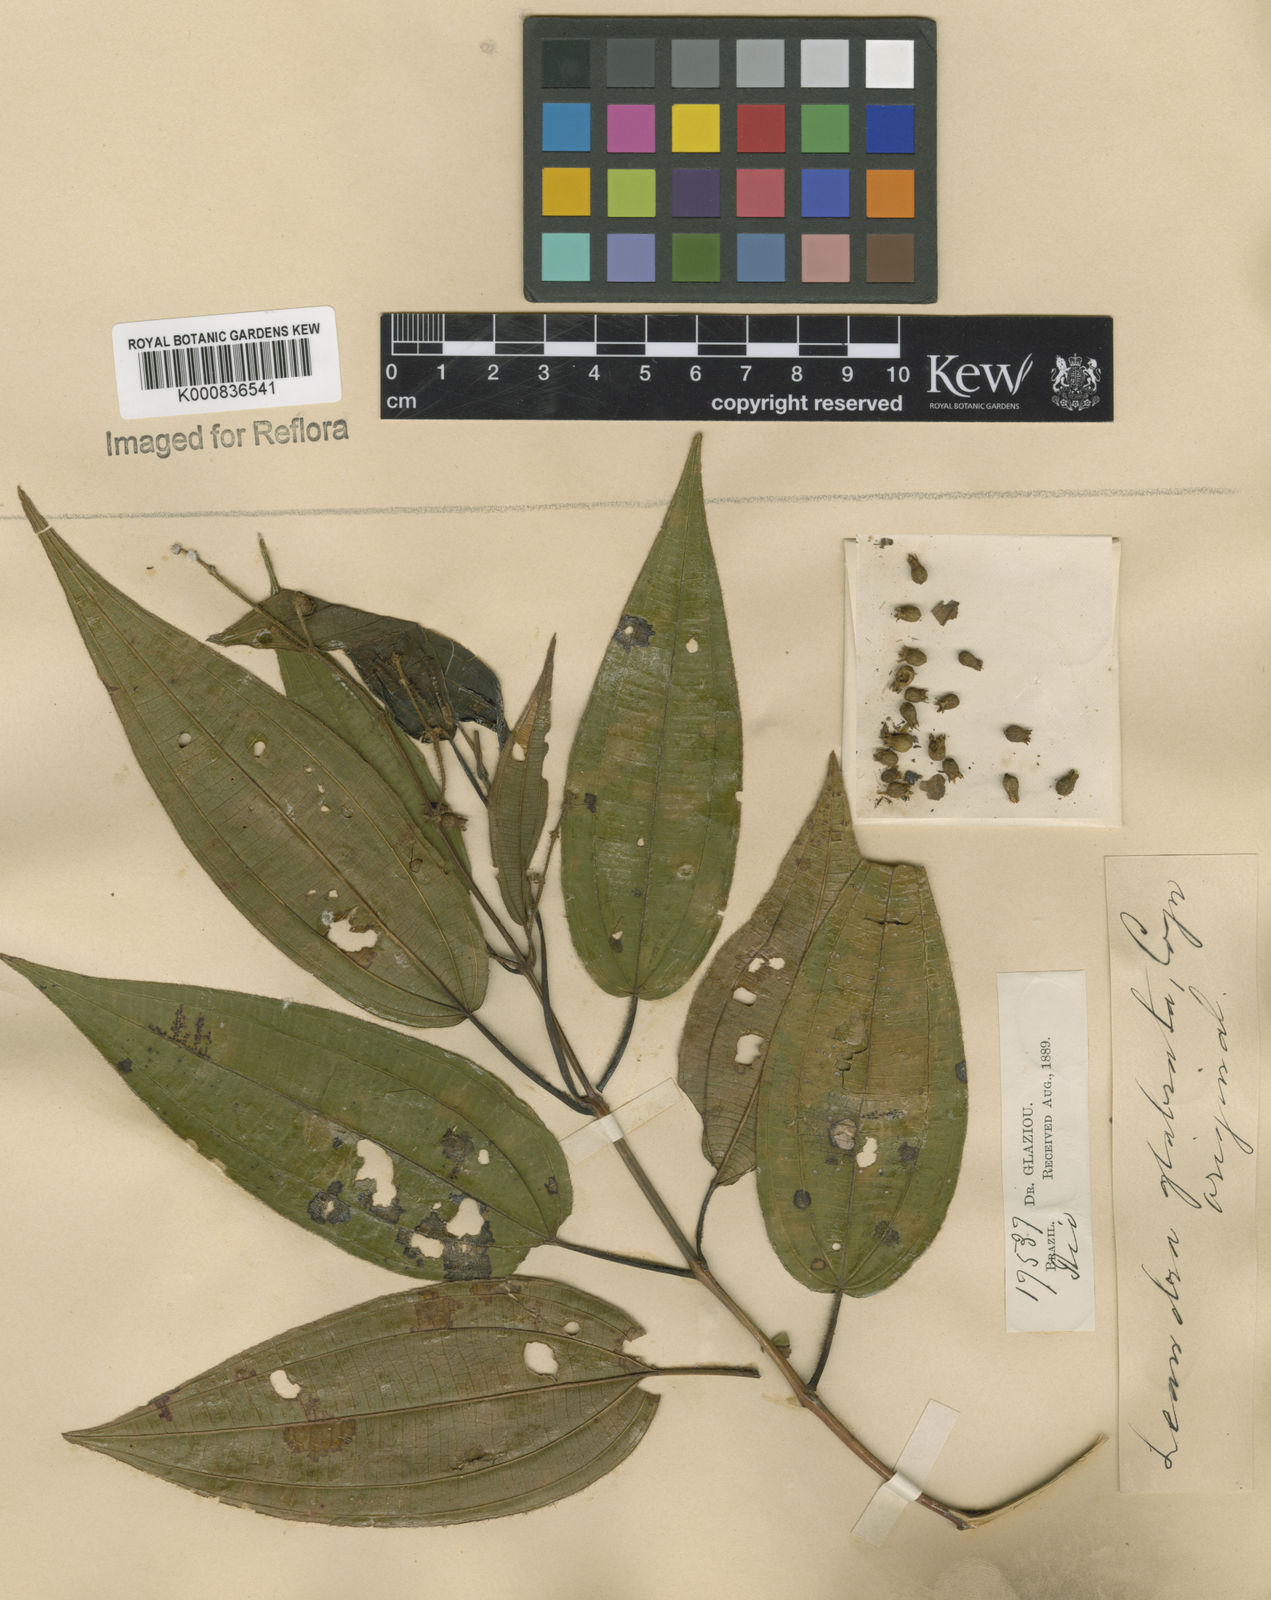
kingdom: Plantae
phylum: Tracheophyta
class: Magnoliopsida
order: Myrtales
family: Melastomataceae
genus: Miconia
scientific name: Miconia dolichostachya
